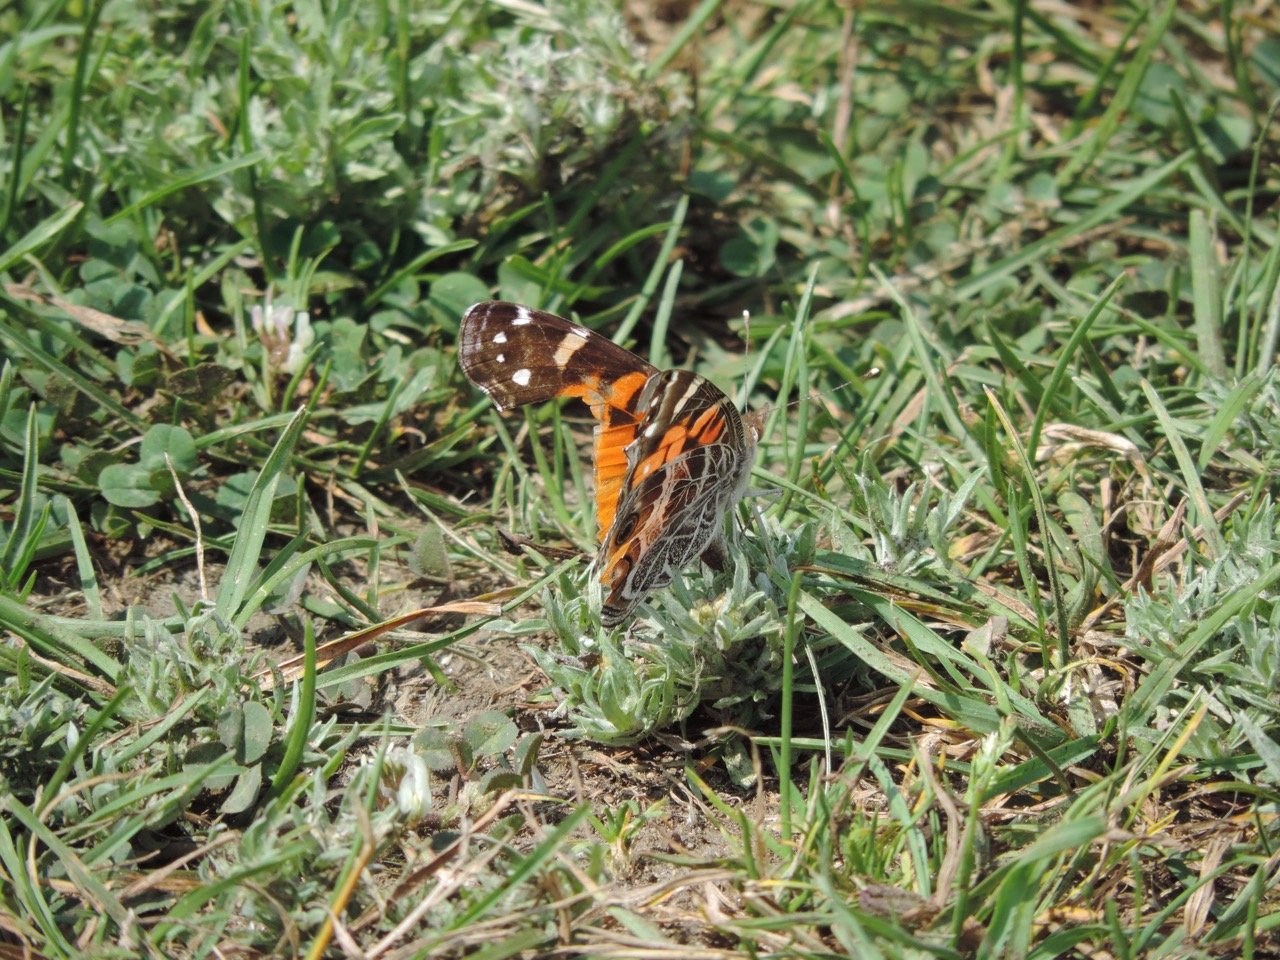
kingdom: Animalia
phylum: Arthropoda
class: Insecta
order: Lepidoptera
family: Nymphalidae
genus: Vanessa
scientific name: Vanessa virginiensis
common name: American Lady
